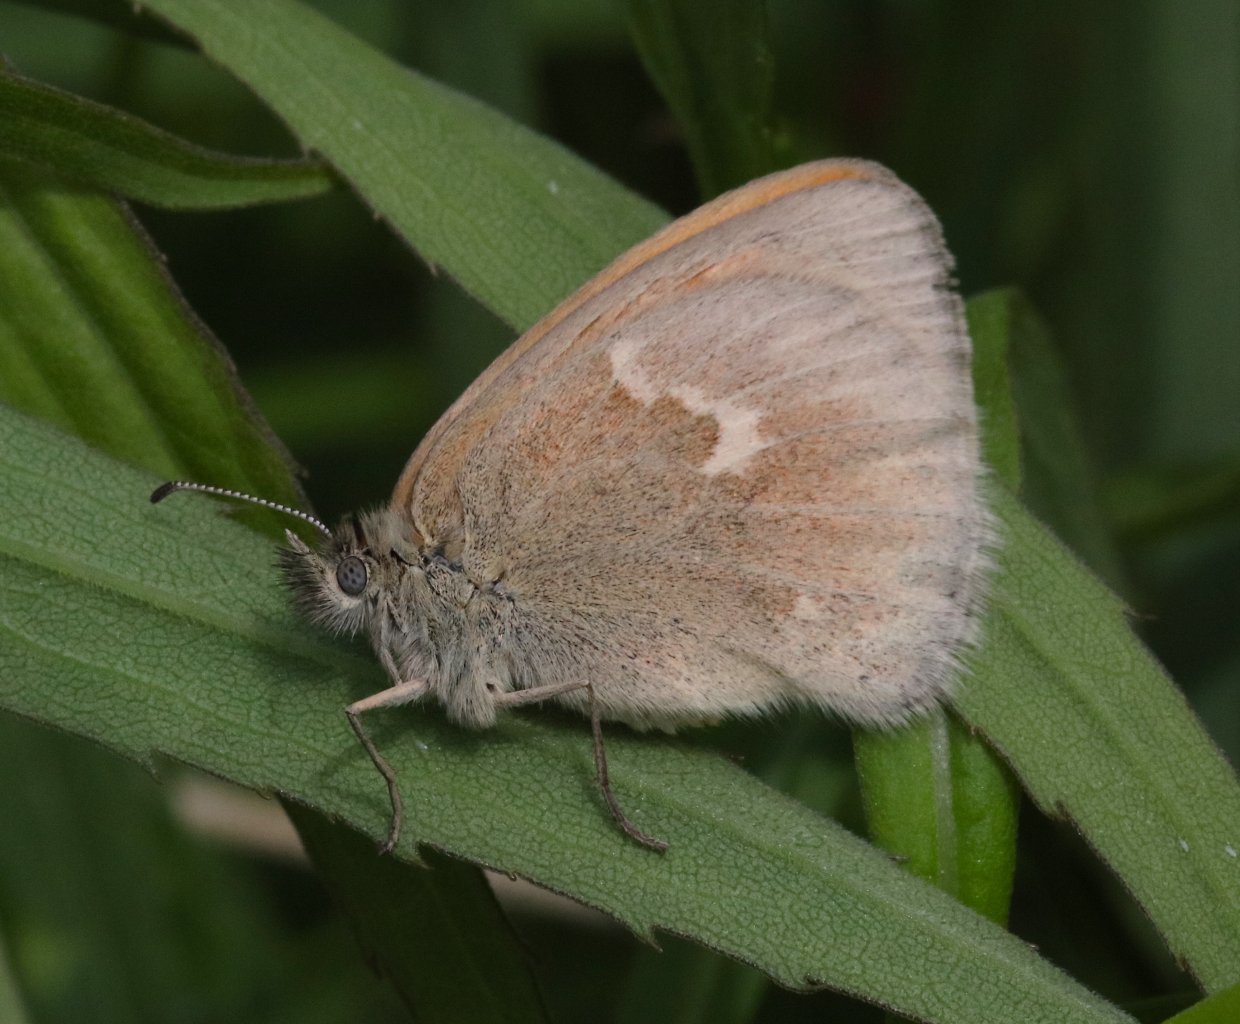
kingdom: Animalia
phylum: Arthropoda
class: Insecta
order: Lepidoptera
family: Nymphalidae
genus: Coenonympha
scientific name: Coenonympha tullia
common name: Large Heath
